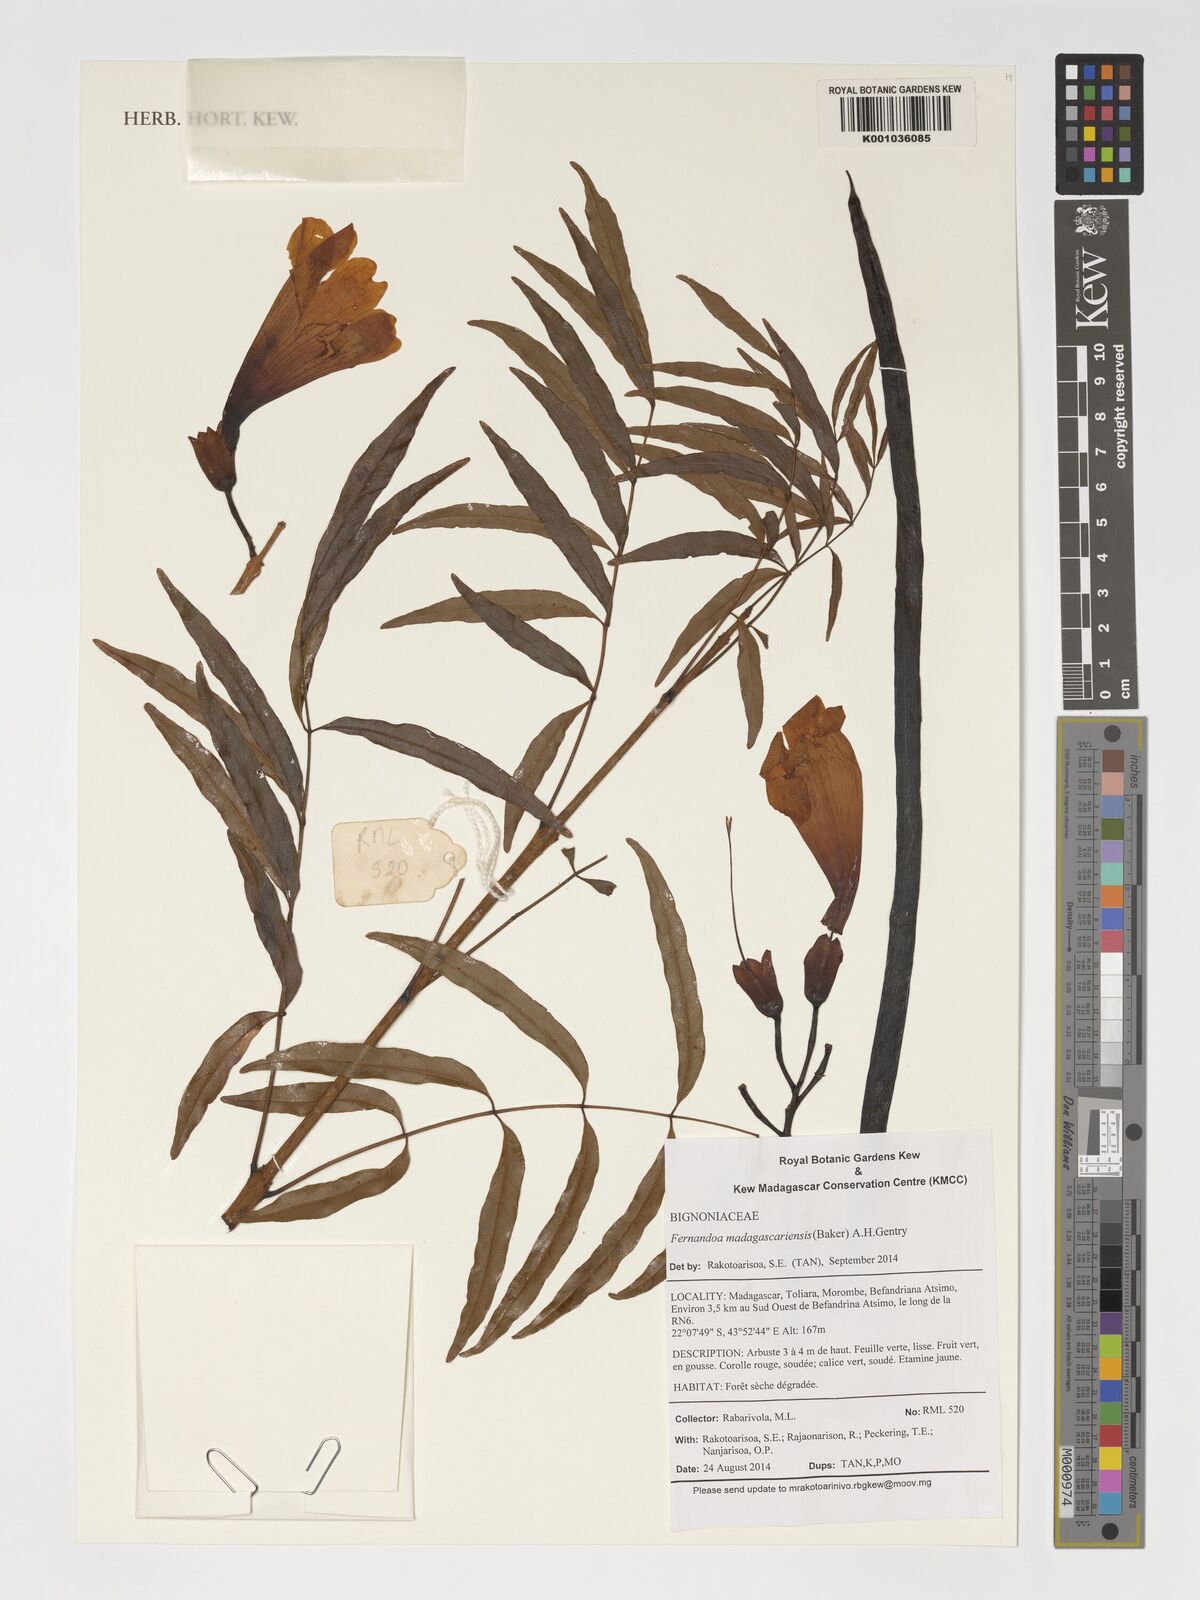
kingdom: Plantae
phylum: Tracheophyta
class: Magnoliopsida
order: Lamiales
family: Bignoniaceae
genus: Fernandoa
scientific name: Fernandoa madagascariensis
